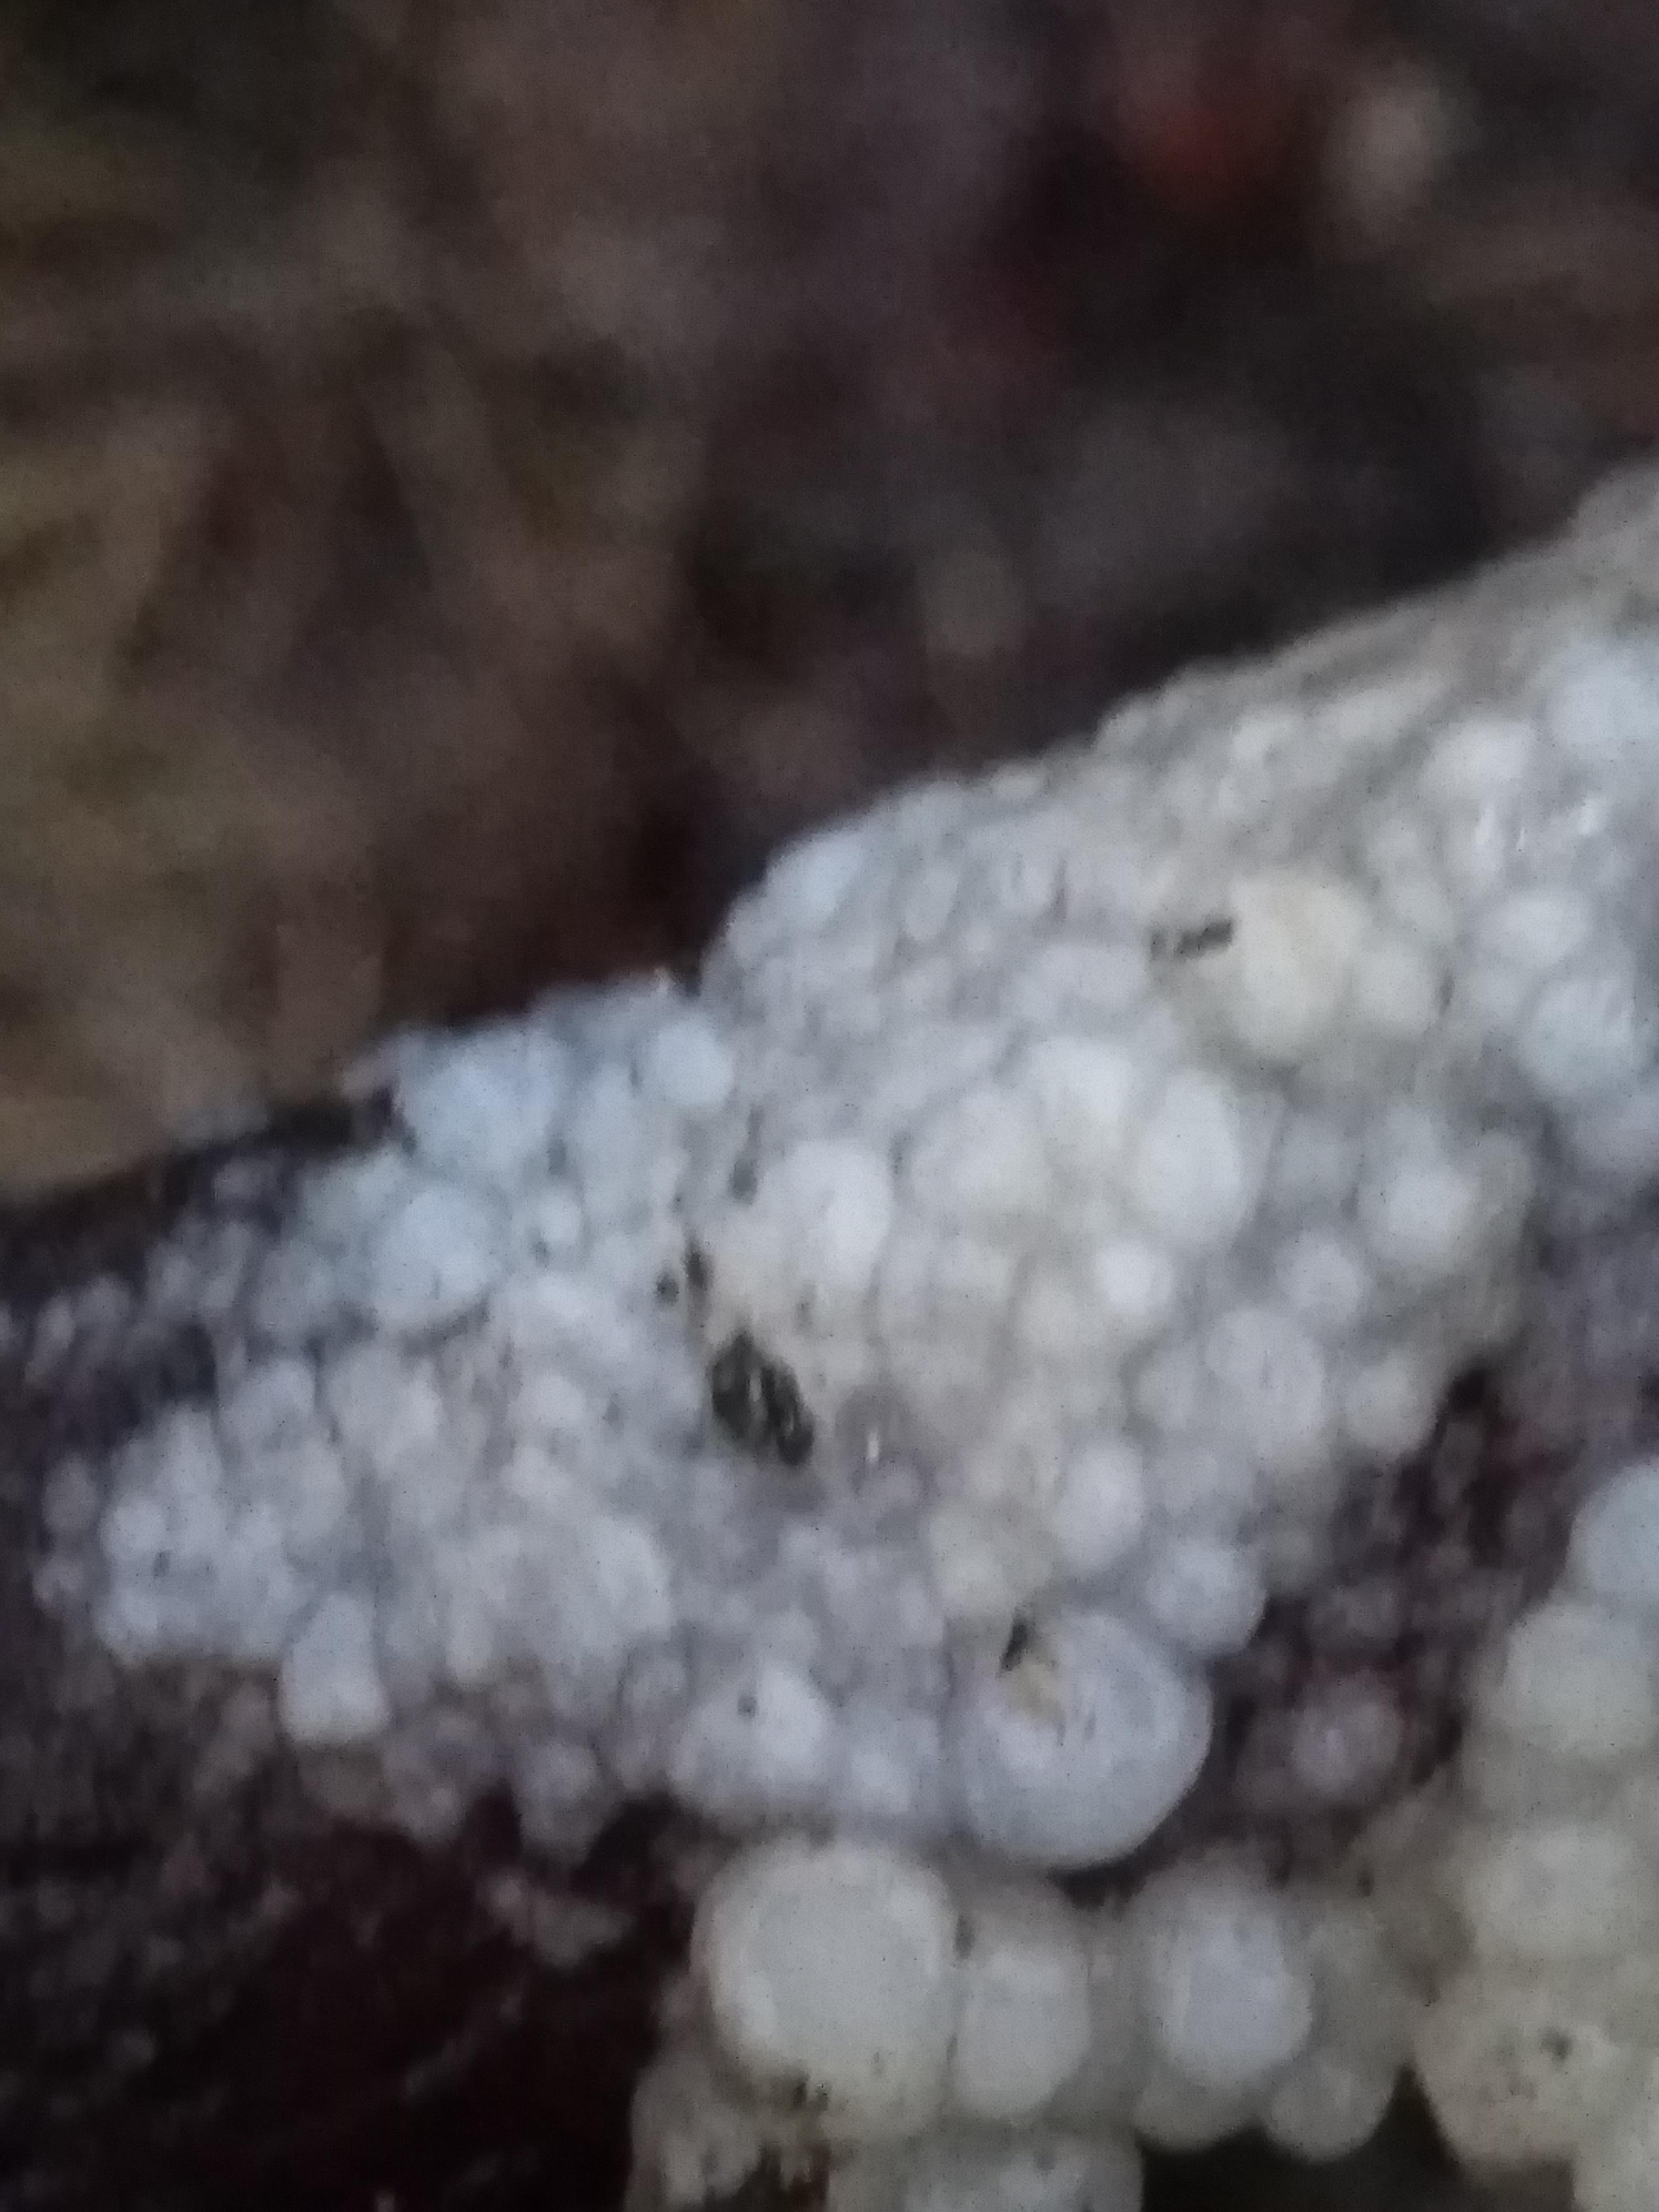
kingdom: Fungi
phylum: Basidiomycota
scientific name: Basidiomycota
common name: basidiesvampe
